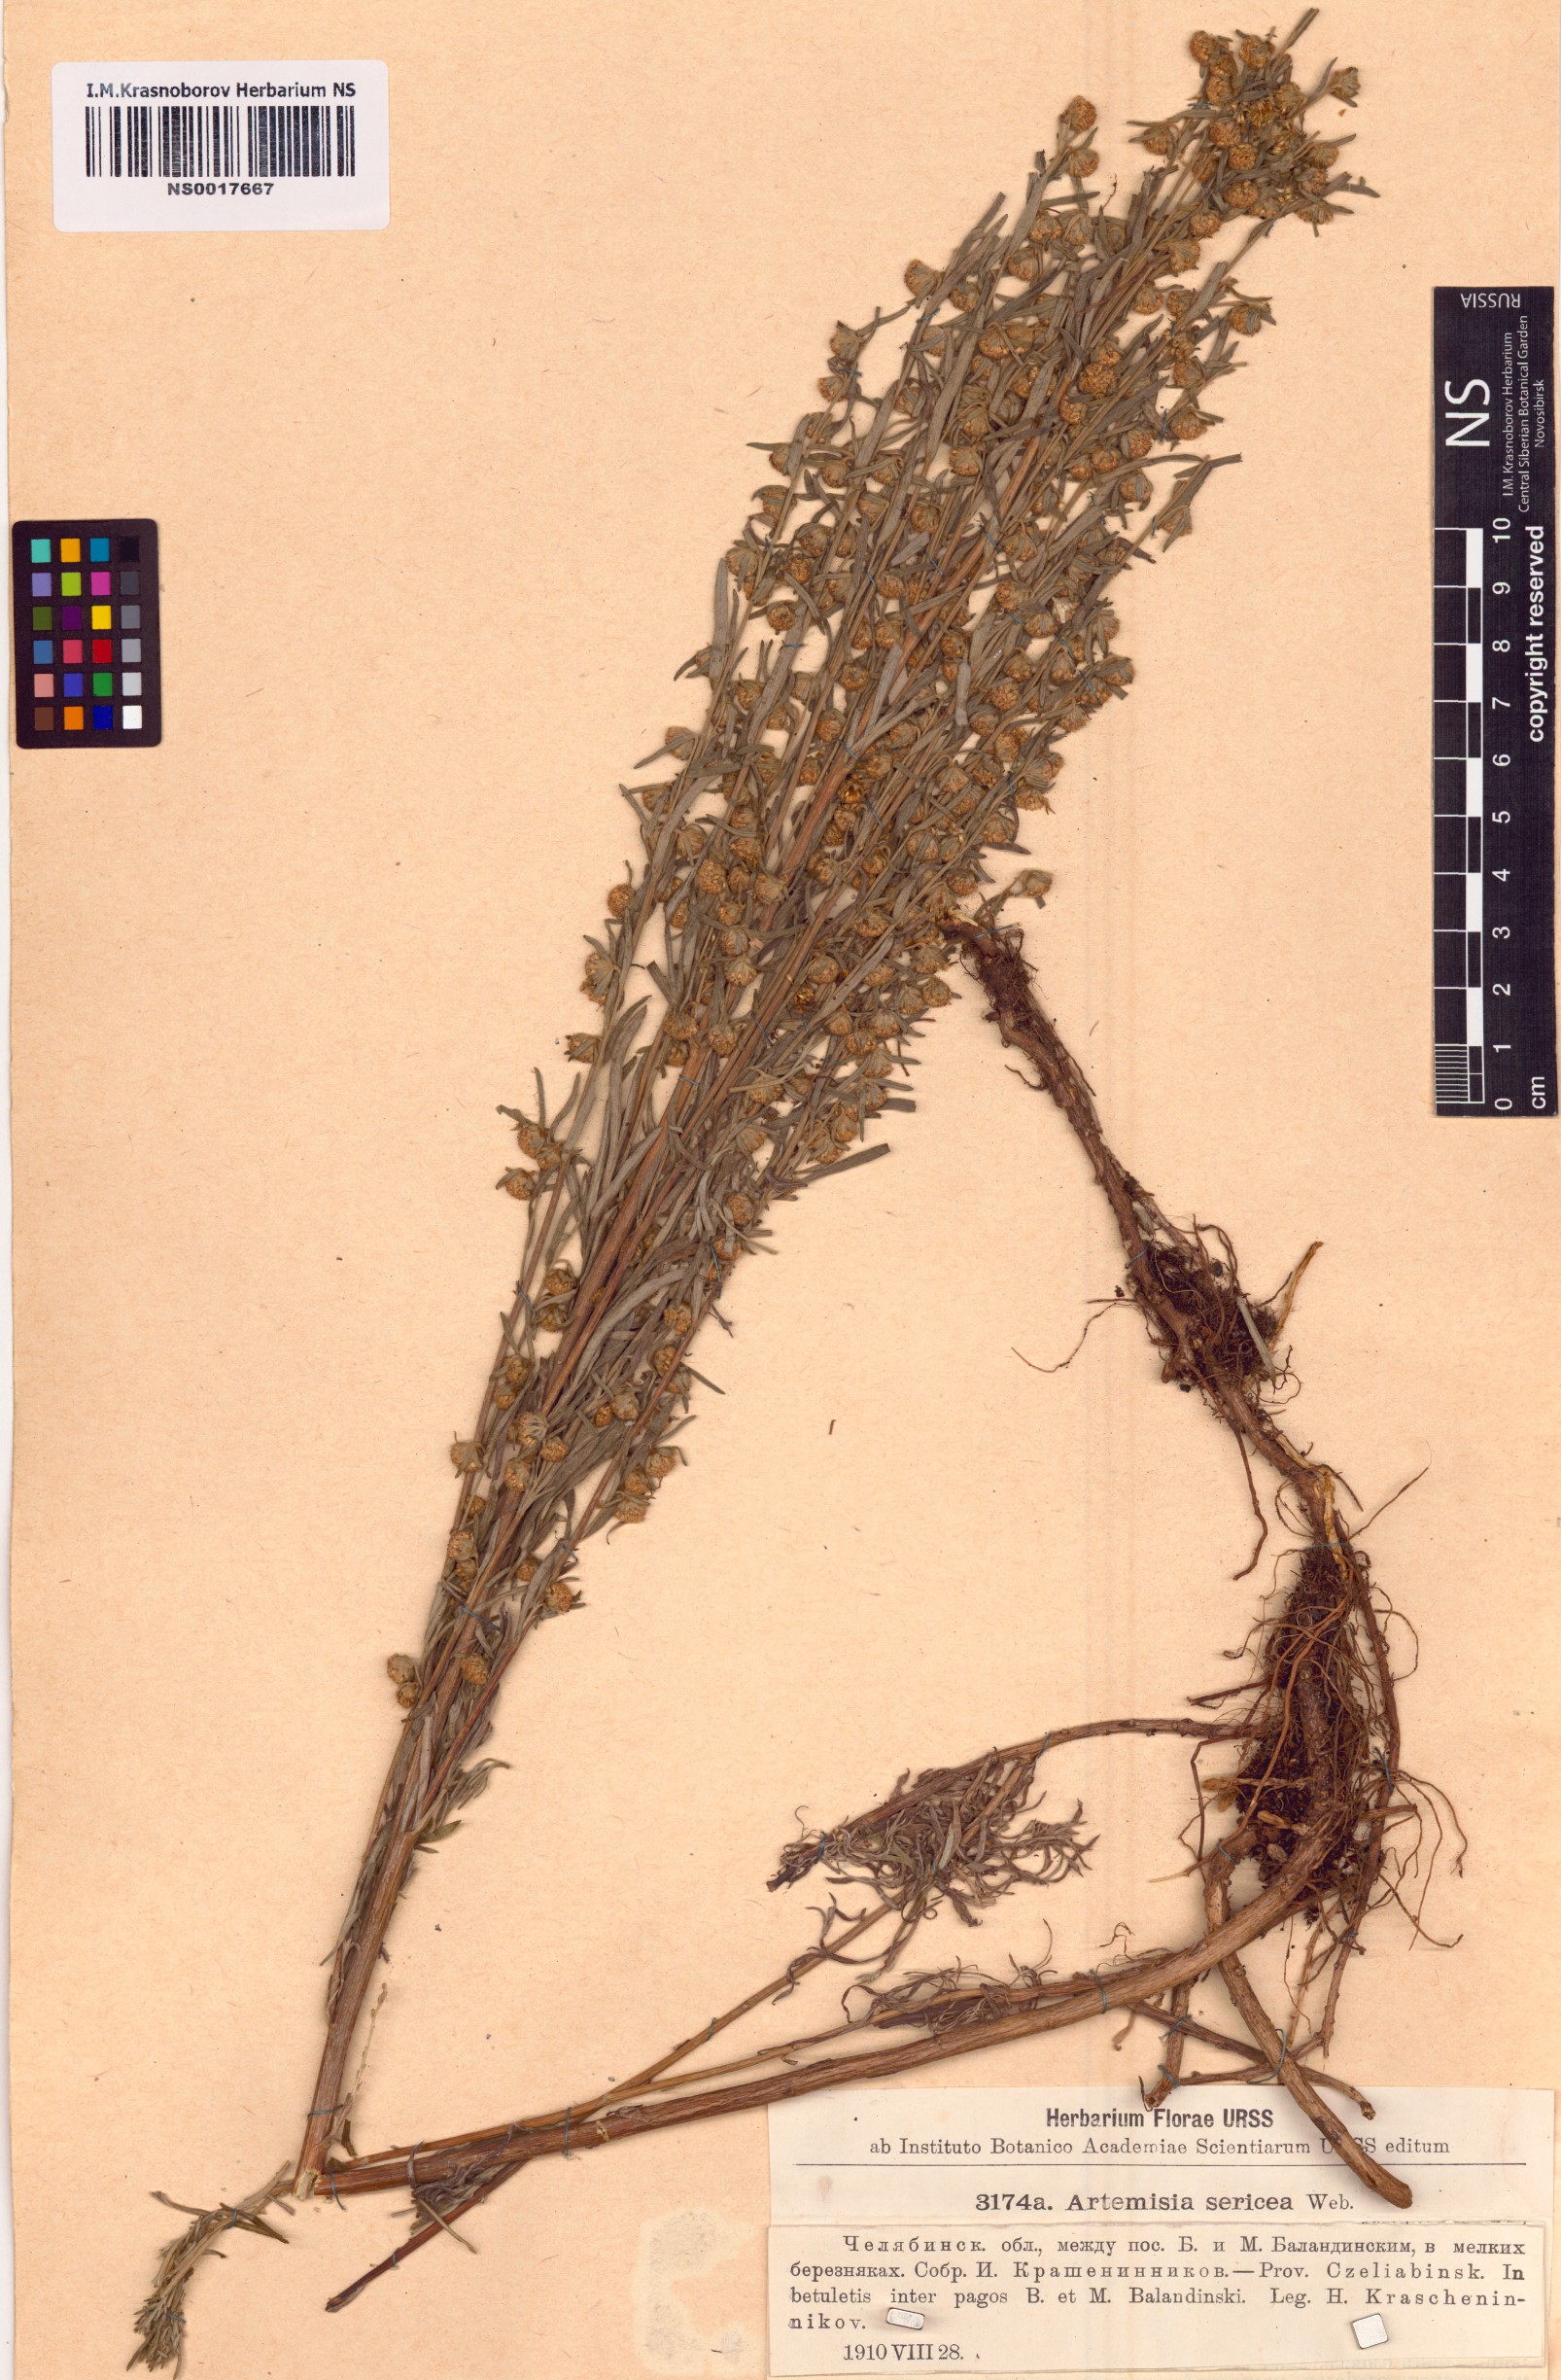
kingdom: Plantae
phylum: Tracheophyta
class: Magnoliopsida
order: Asterales
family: Asteraceae
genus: Artemisia
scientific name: Artemisia sericea
